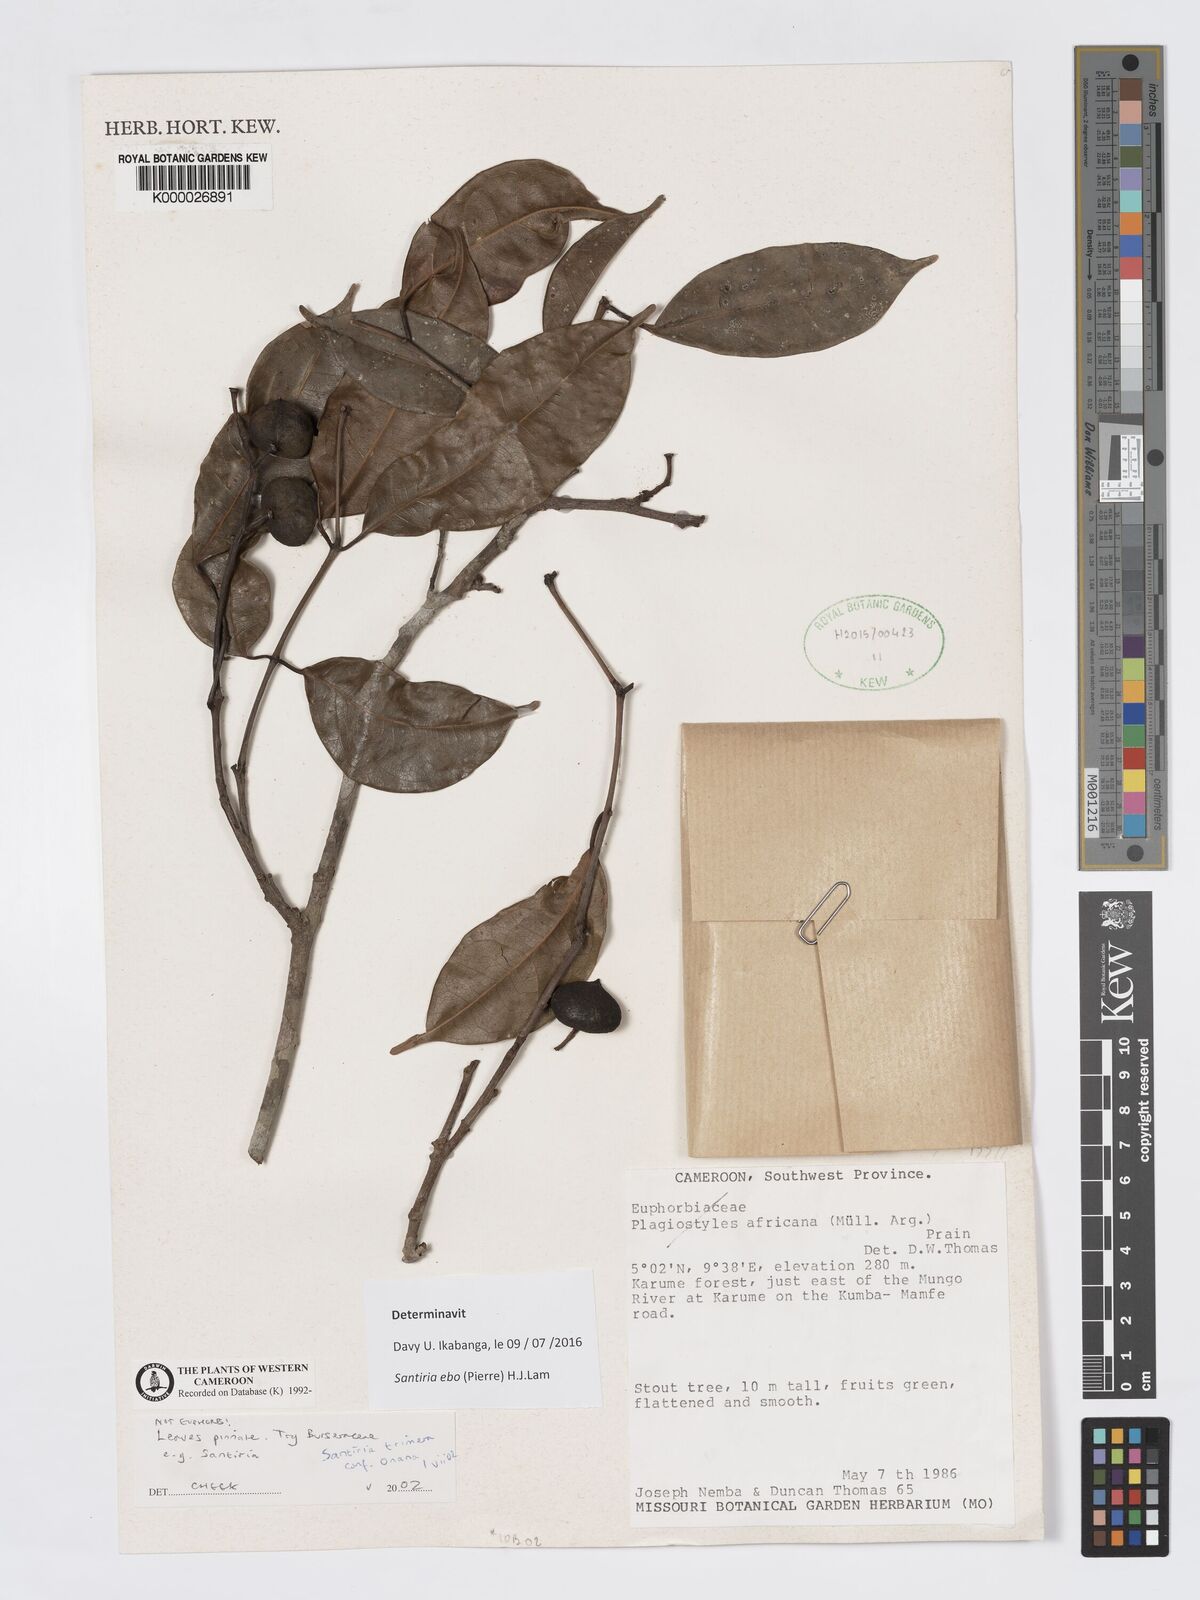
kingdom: Plantae
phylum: Tracheophyta
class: Magnoliopsida
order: Sapindales
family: Burseraceae
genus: Santiria
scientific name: Santiria
